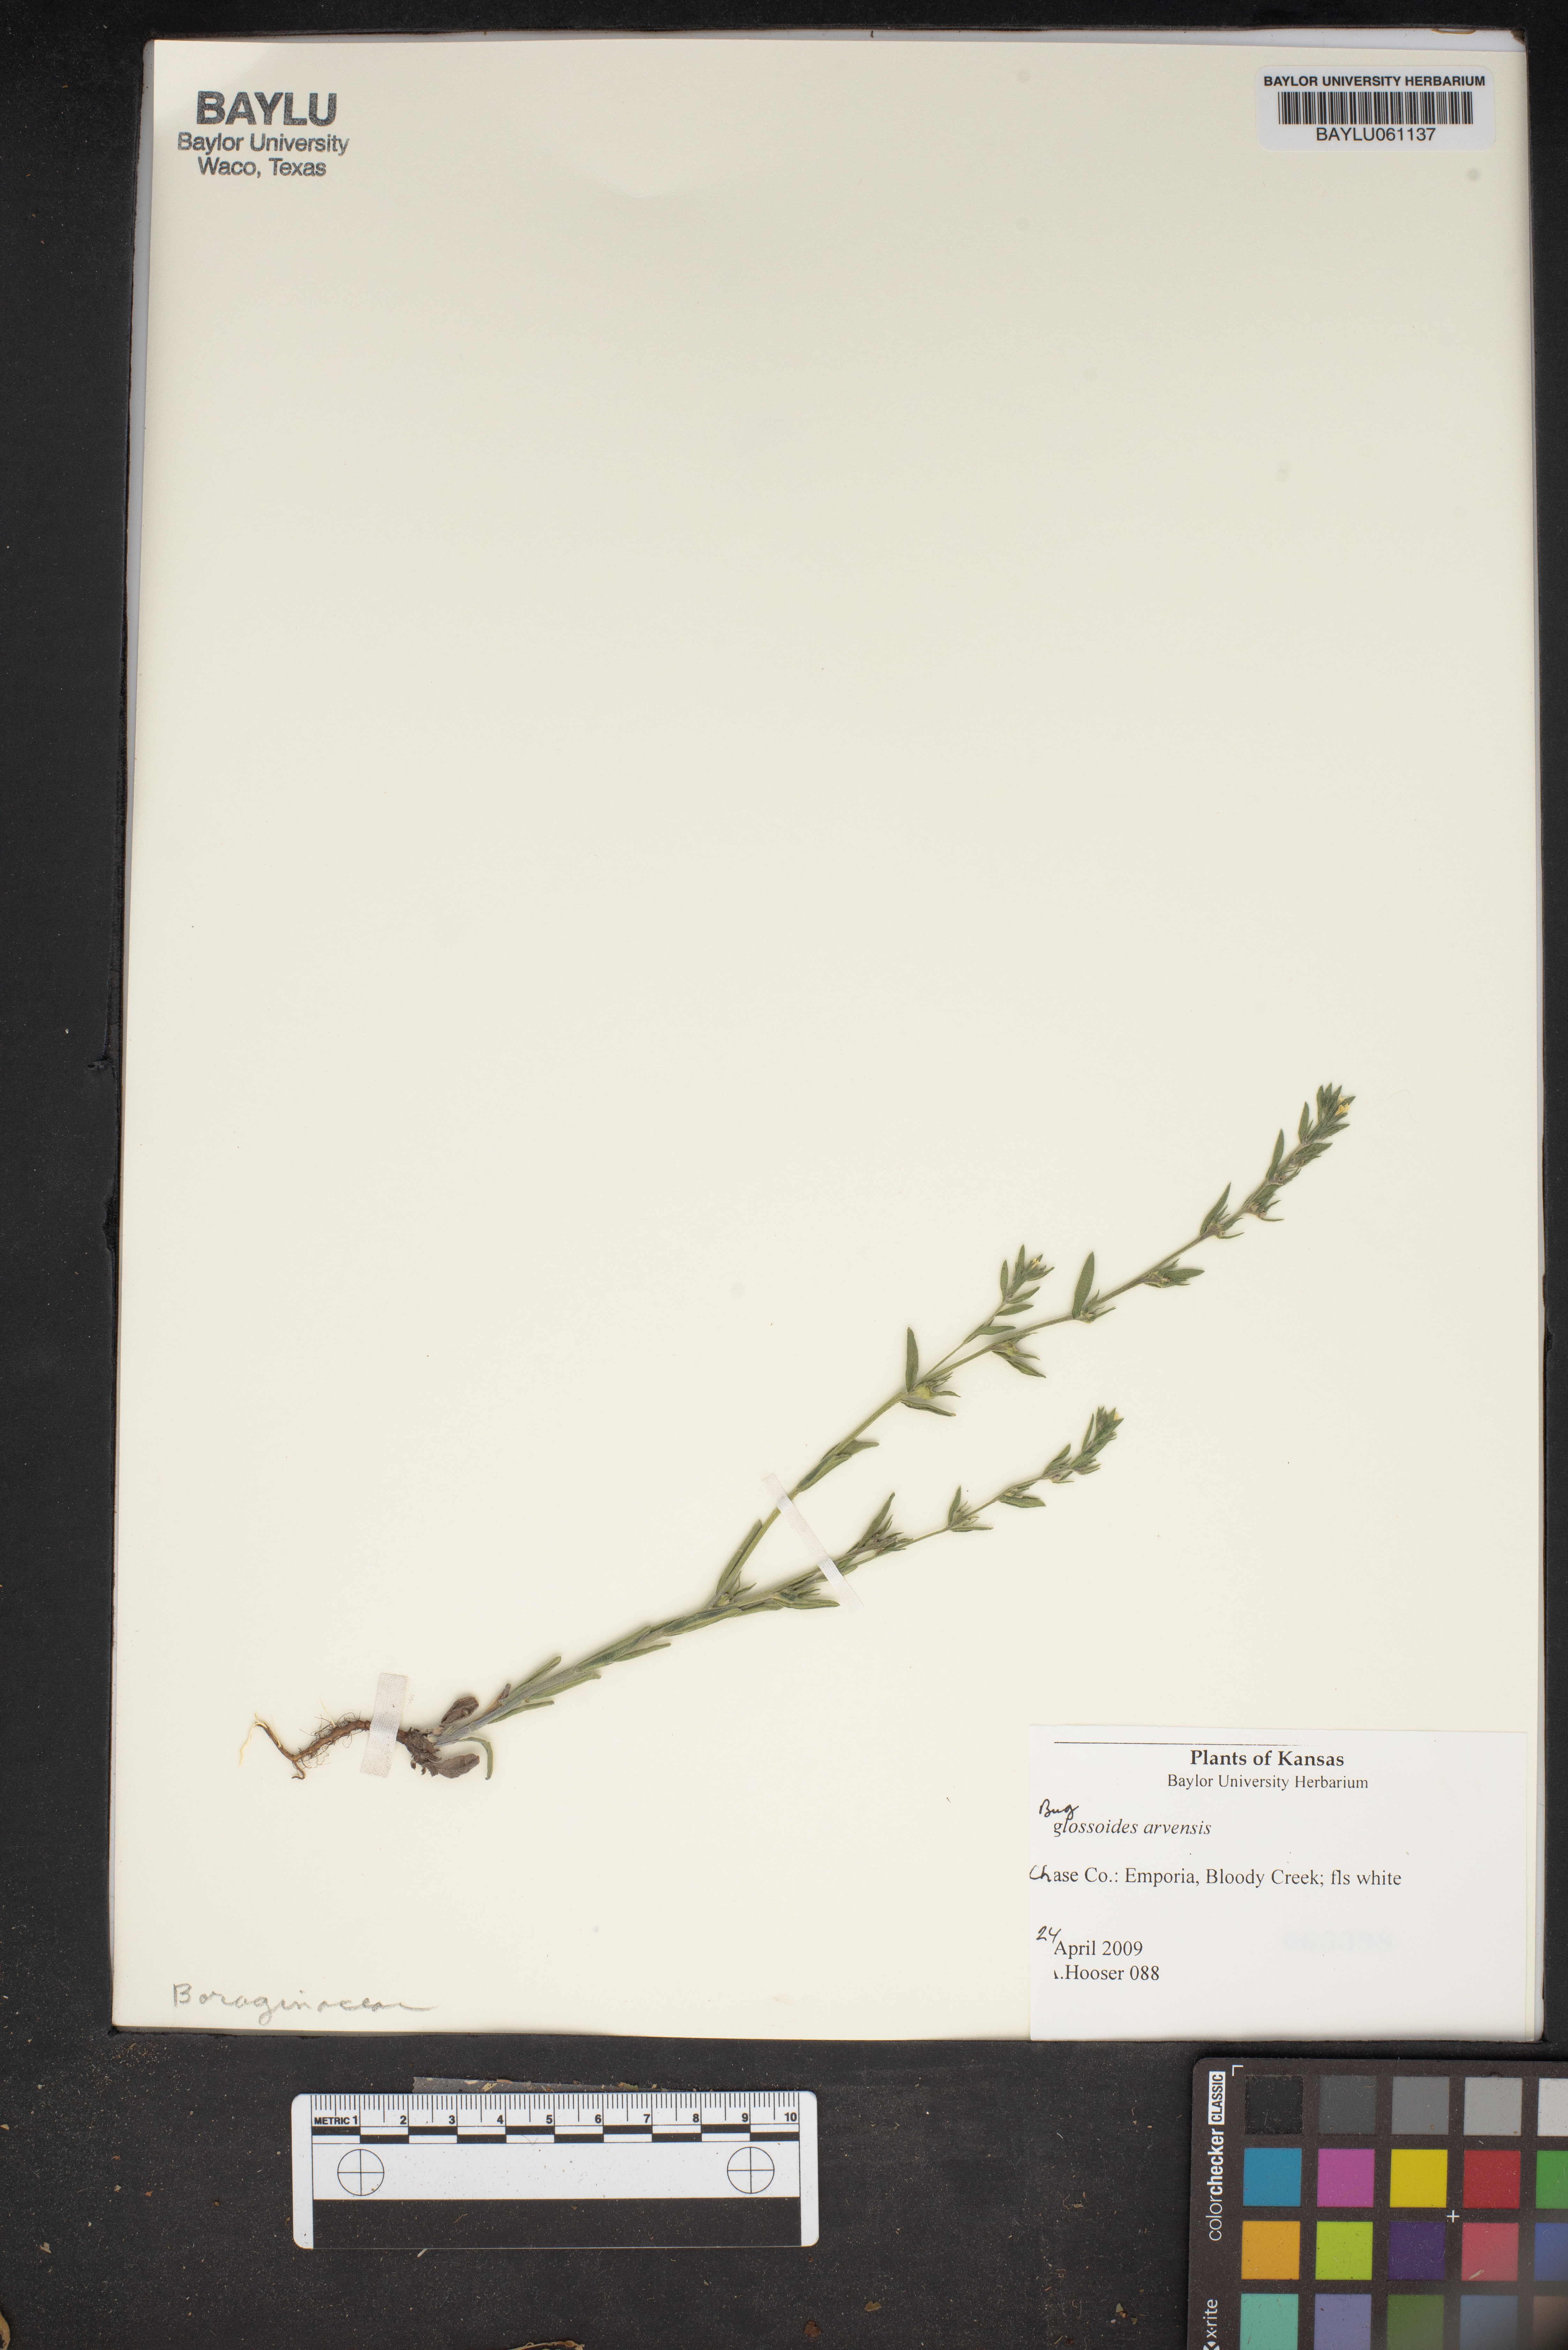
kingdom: Plantae
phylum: Tracheophyta
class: Magnoliopsida
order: Boraginales
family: Boraginaceae
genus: Buglossoides
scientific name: Buglossoides arvensis
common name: Corn gromwell
